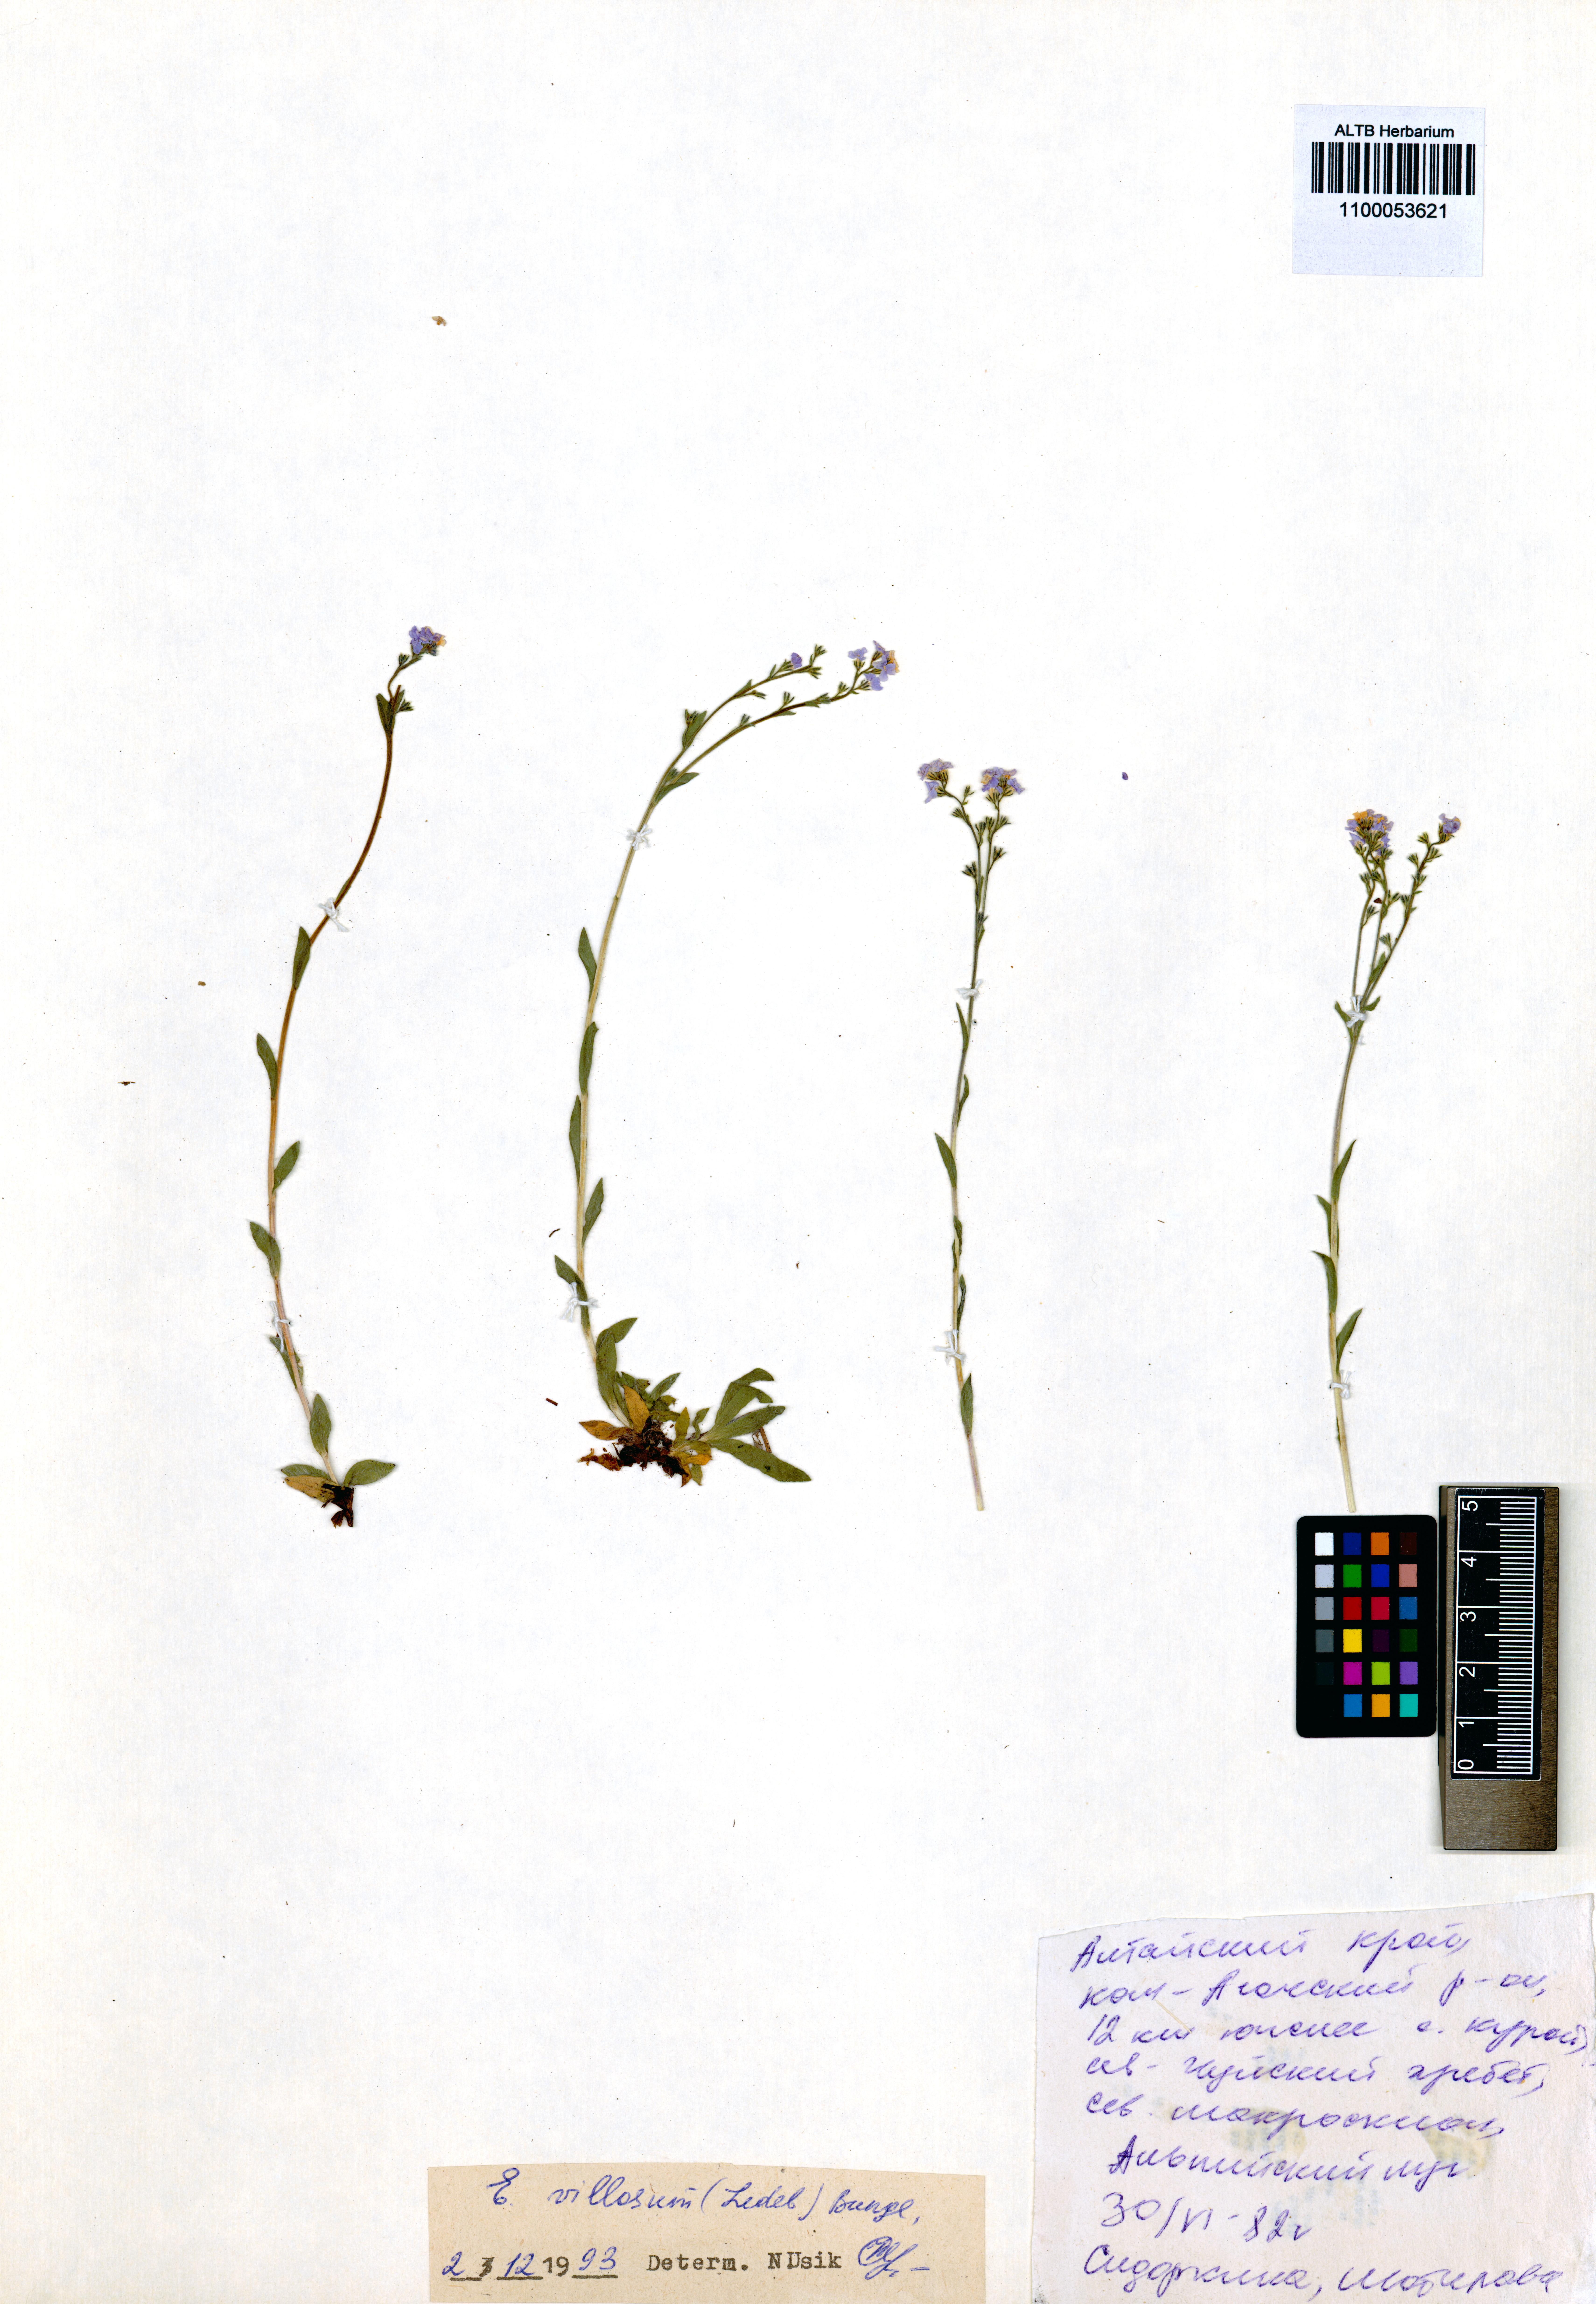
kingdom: Plantae
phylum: Tracheophyta
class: Magnoliopsida
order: Boraginales
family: Boraginaceae
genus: Eritrichium
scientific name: Eritrichium villosum
